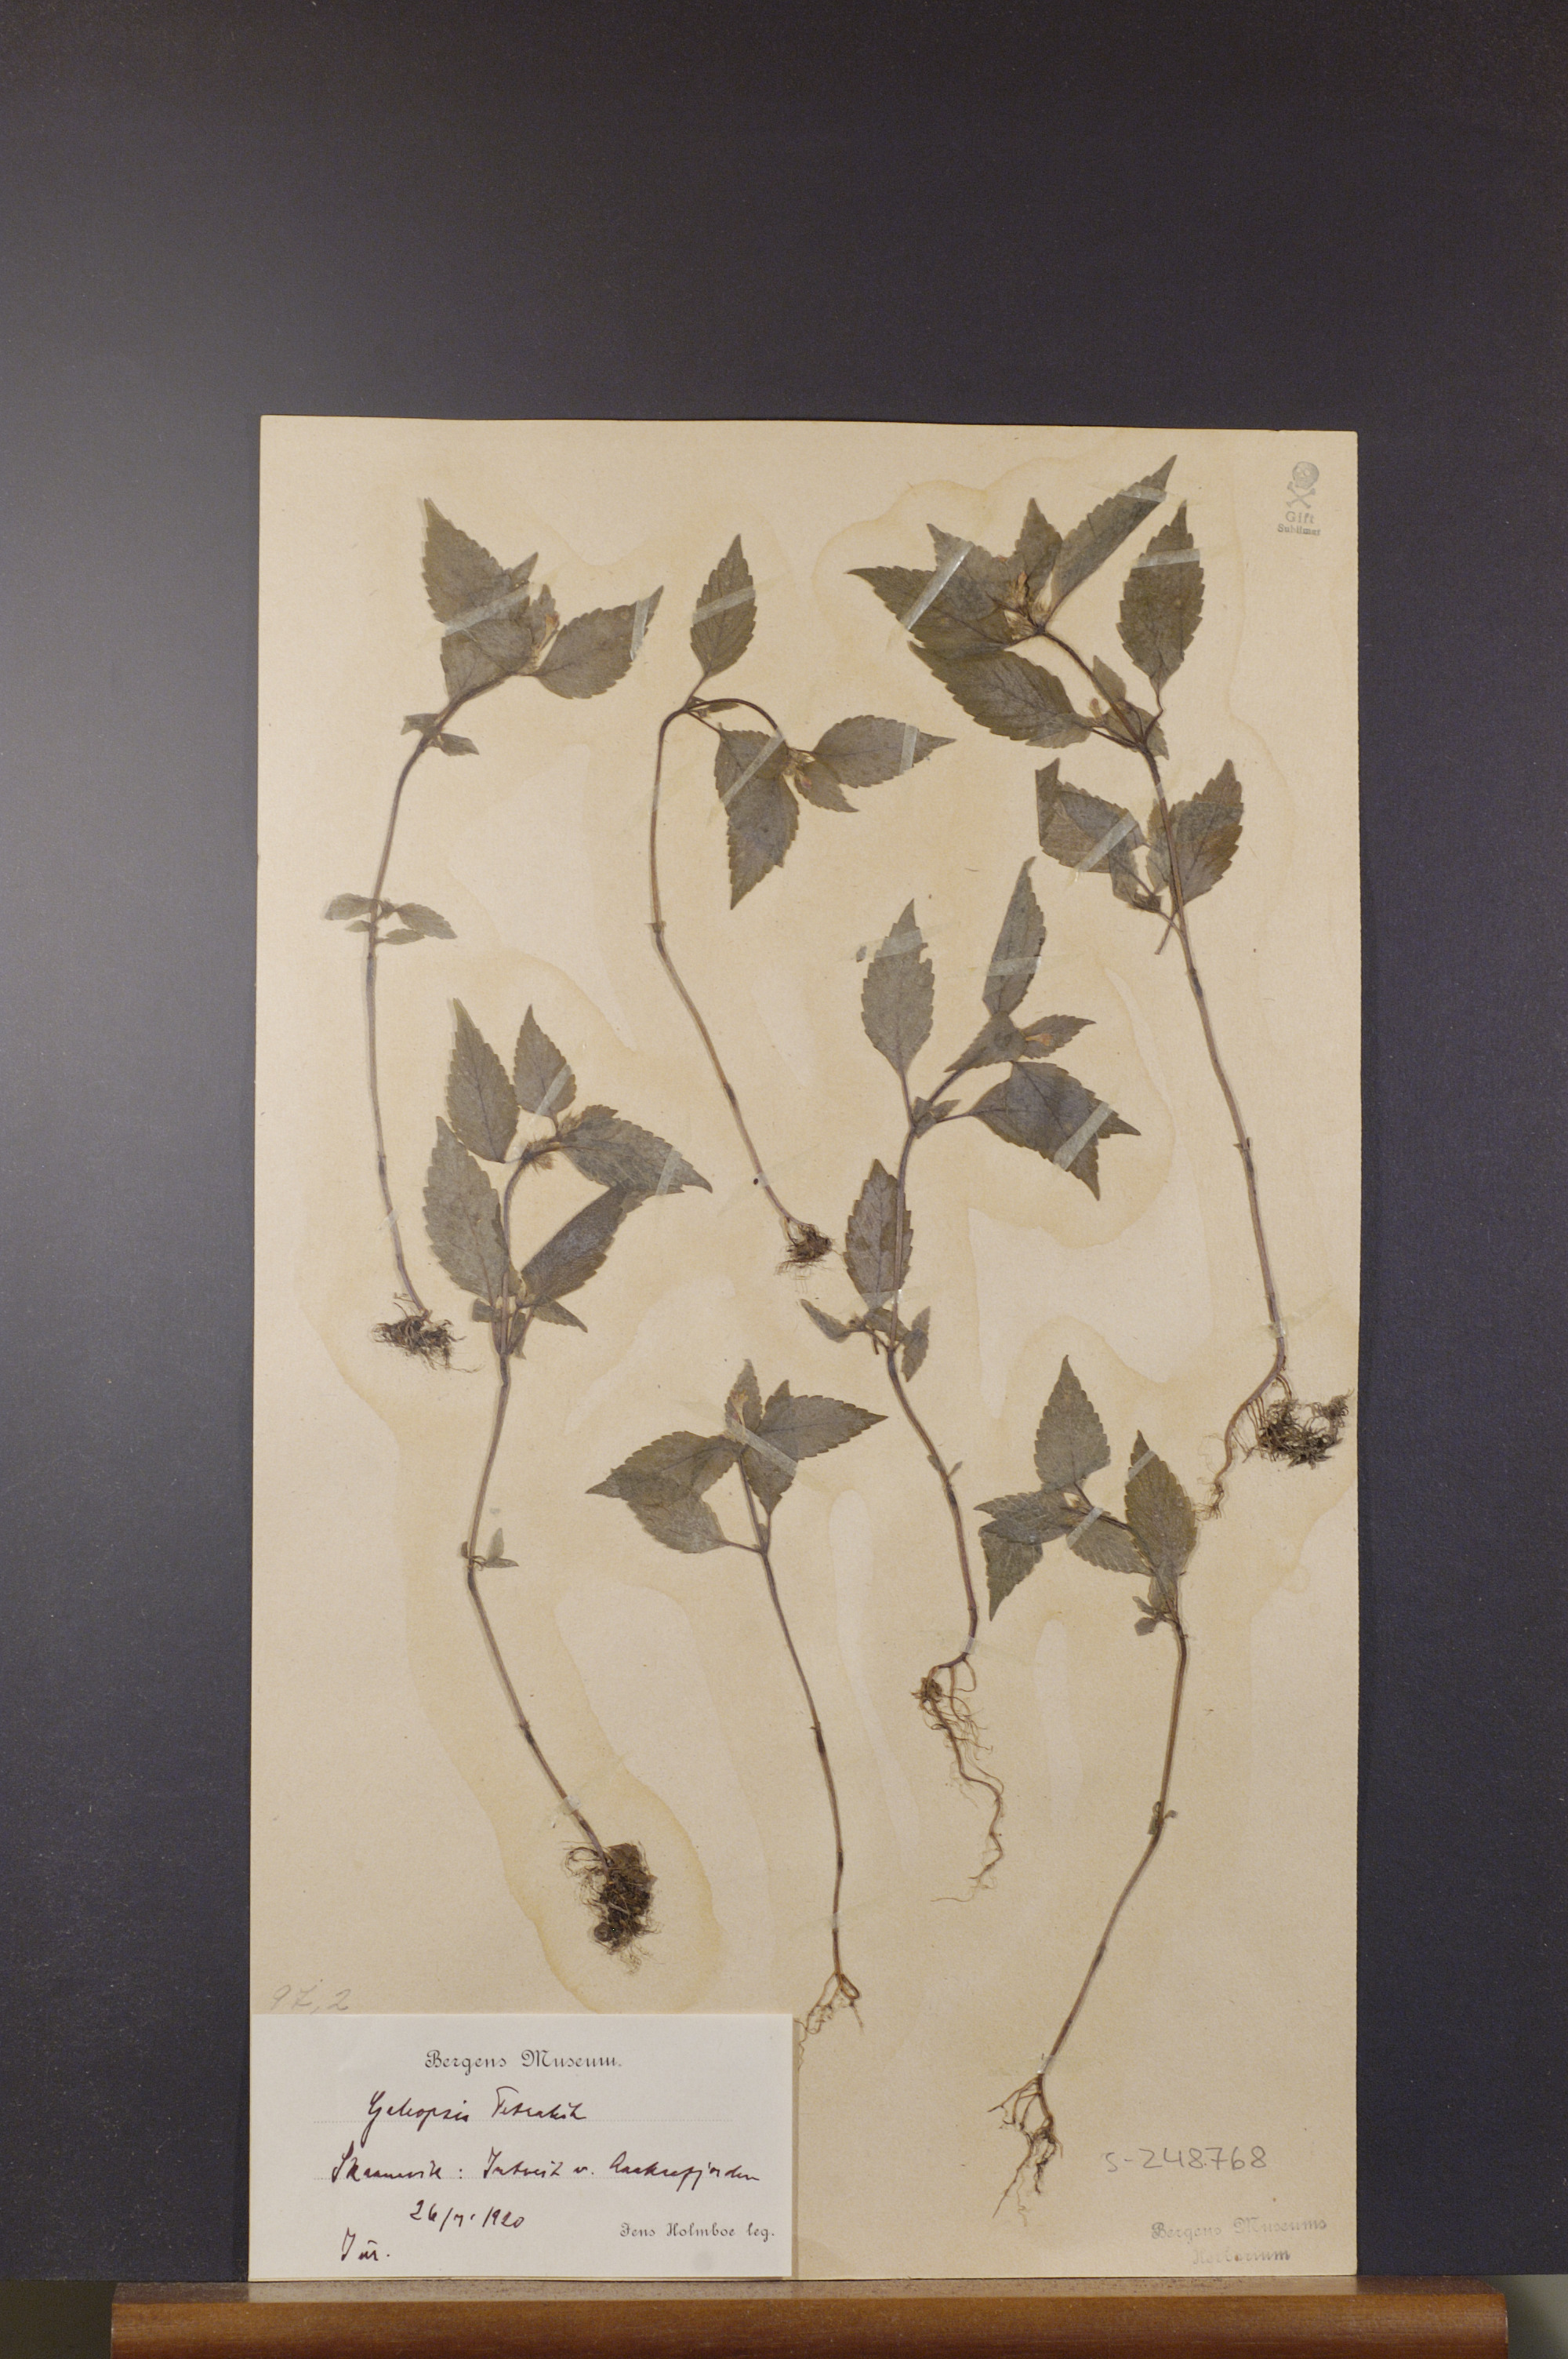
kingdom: Plantae
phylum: Tracheophyta
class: Magnoliopsida
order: Lamiales
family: Lamiaceae
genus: Galeopsis
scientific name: Galeopsis tetrahit
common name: Common hemp-nettle
